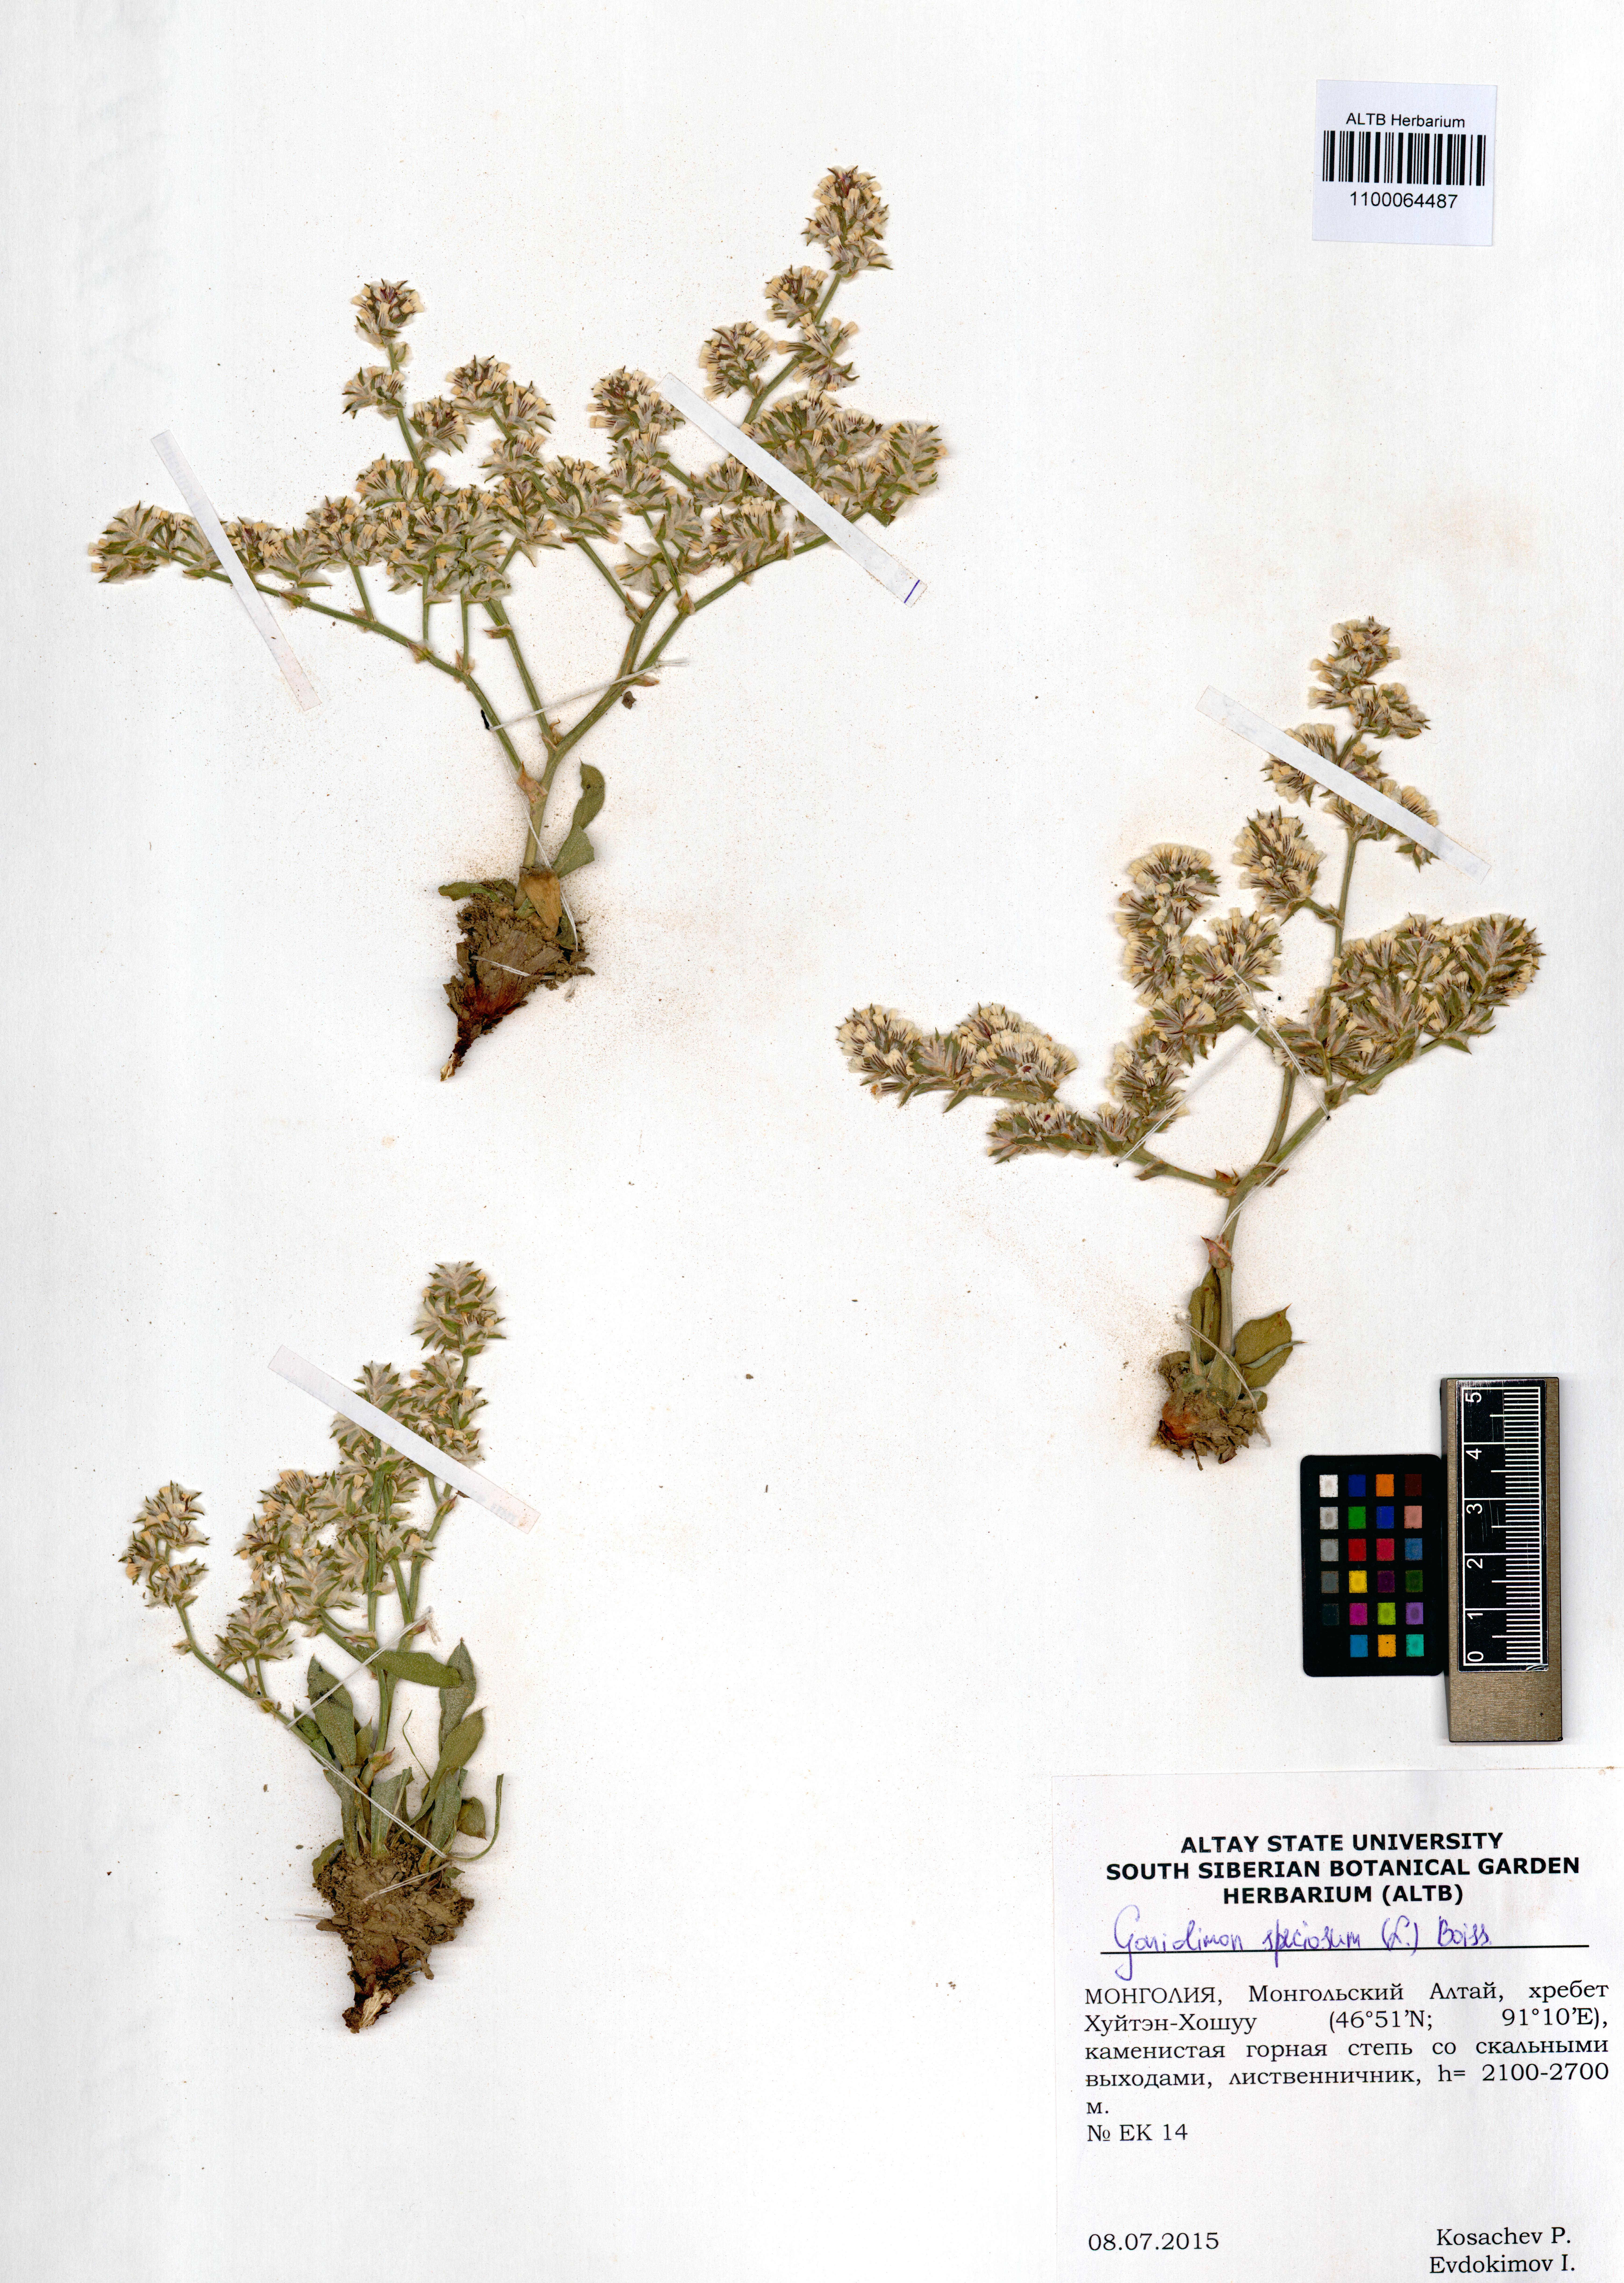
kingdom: Plantae
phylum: Tracheophyta
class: Magnoliopsida
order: Caryophyllales
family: Plumbaginaceae
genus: Goniolimon
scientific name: Goniolimon speciosum
